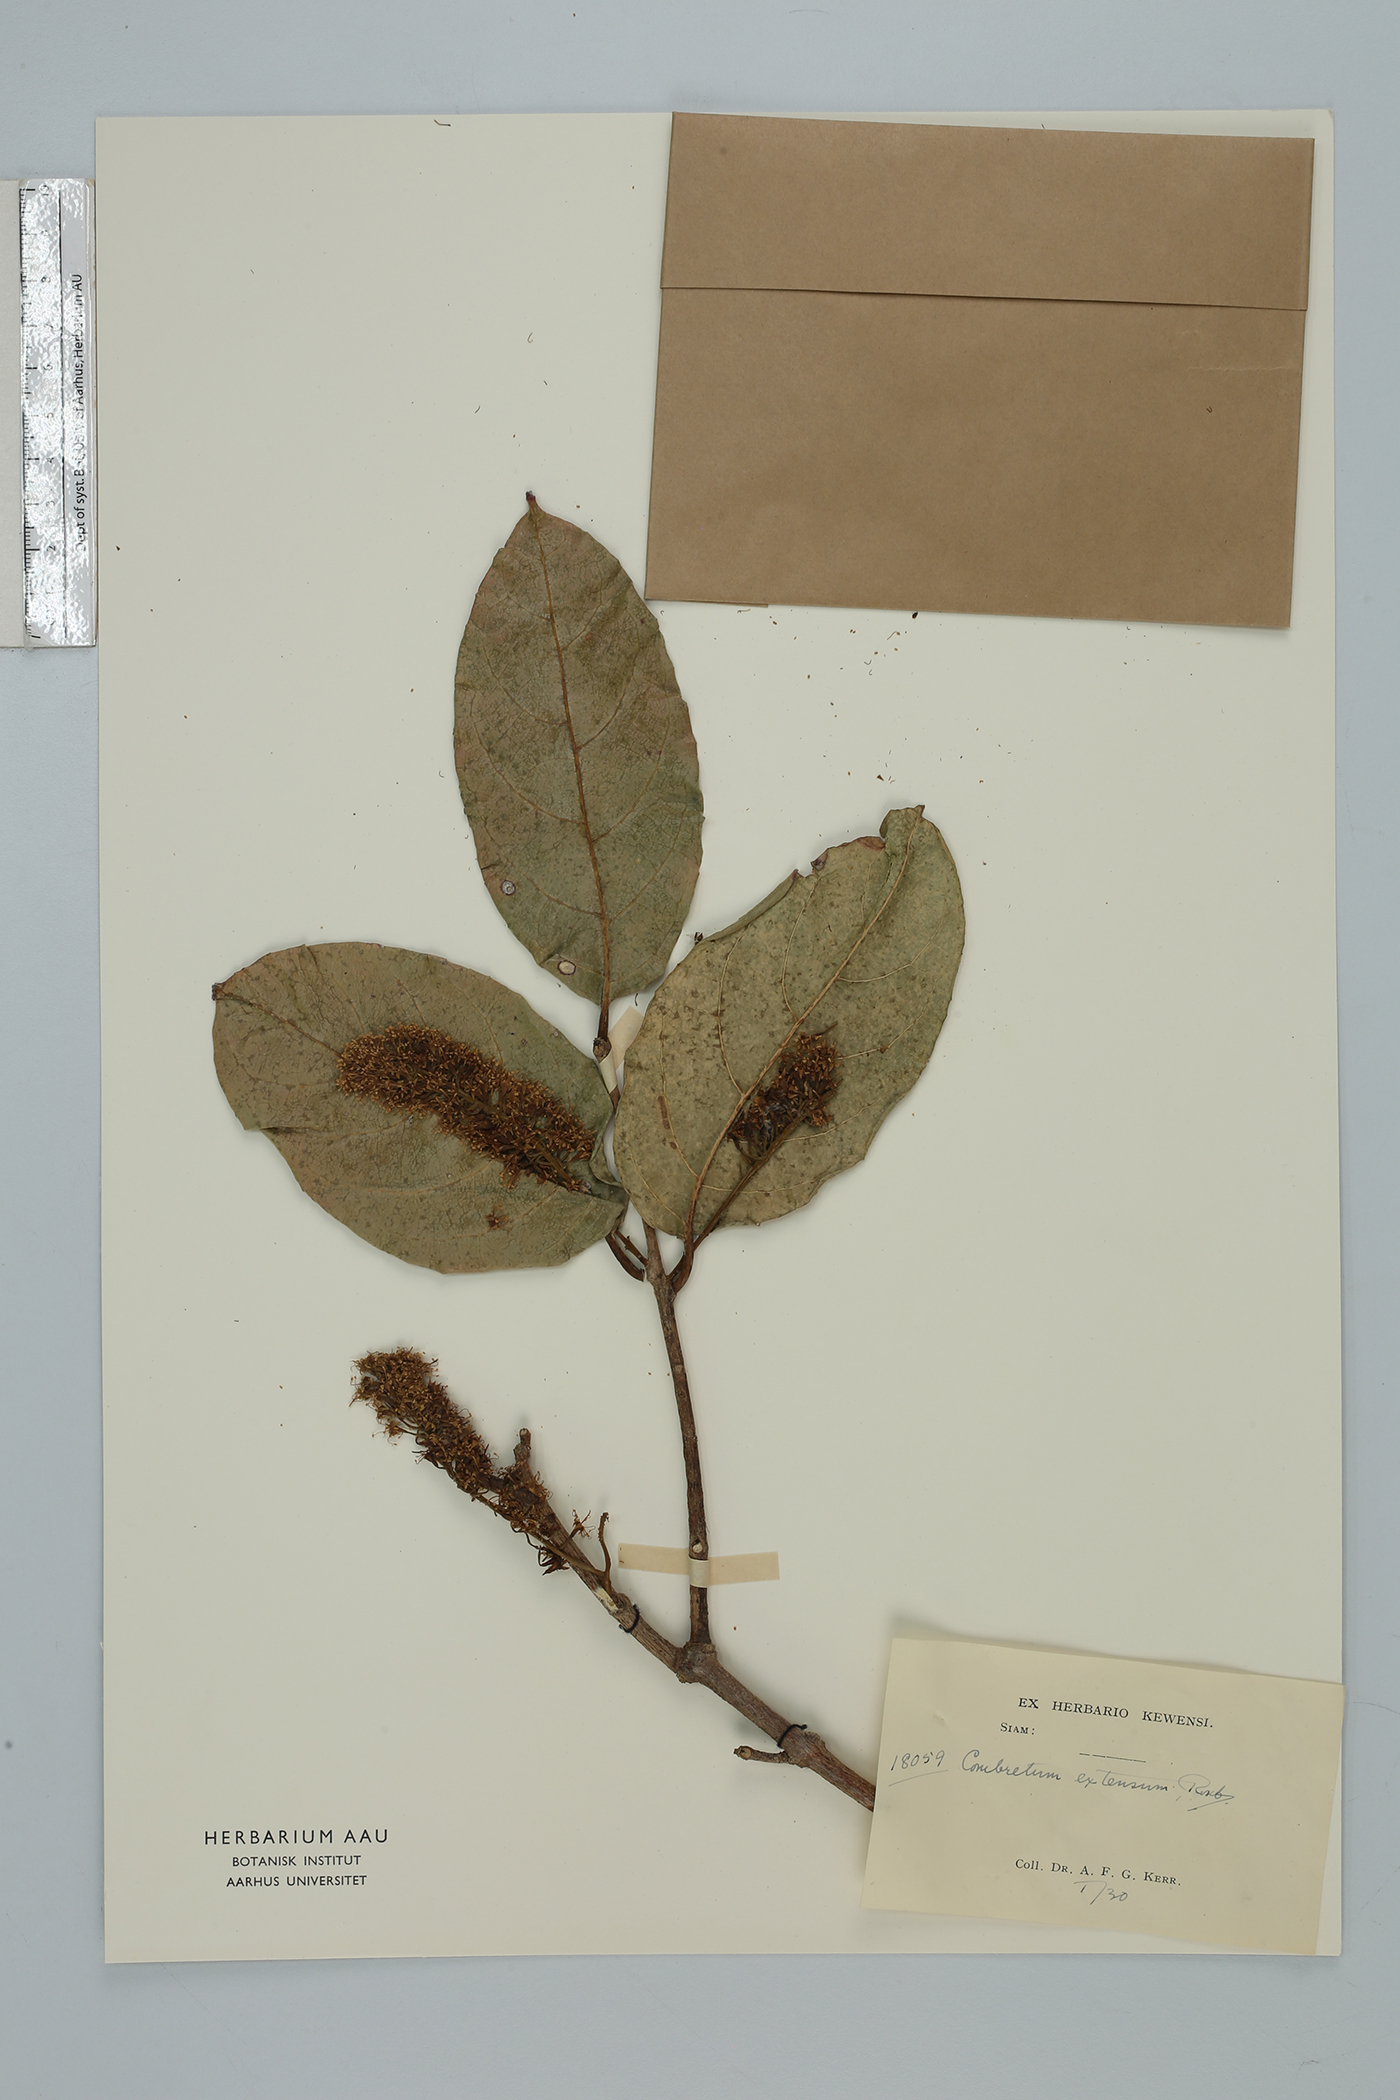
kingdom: Plantae
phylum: Tracheophyta
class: Magnoliopsida
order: Myrtales
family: Combretaceae
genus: Combretum
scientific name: Combretum latifolium
